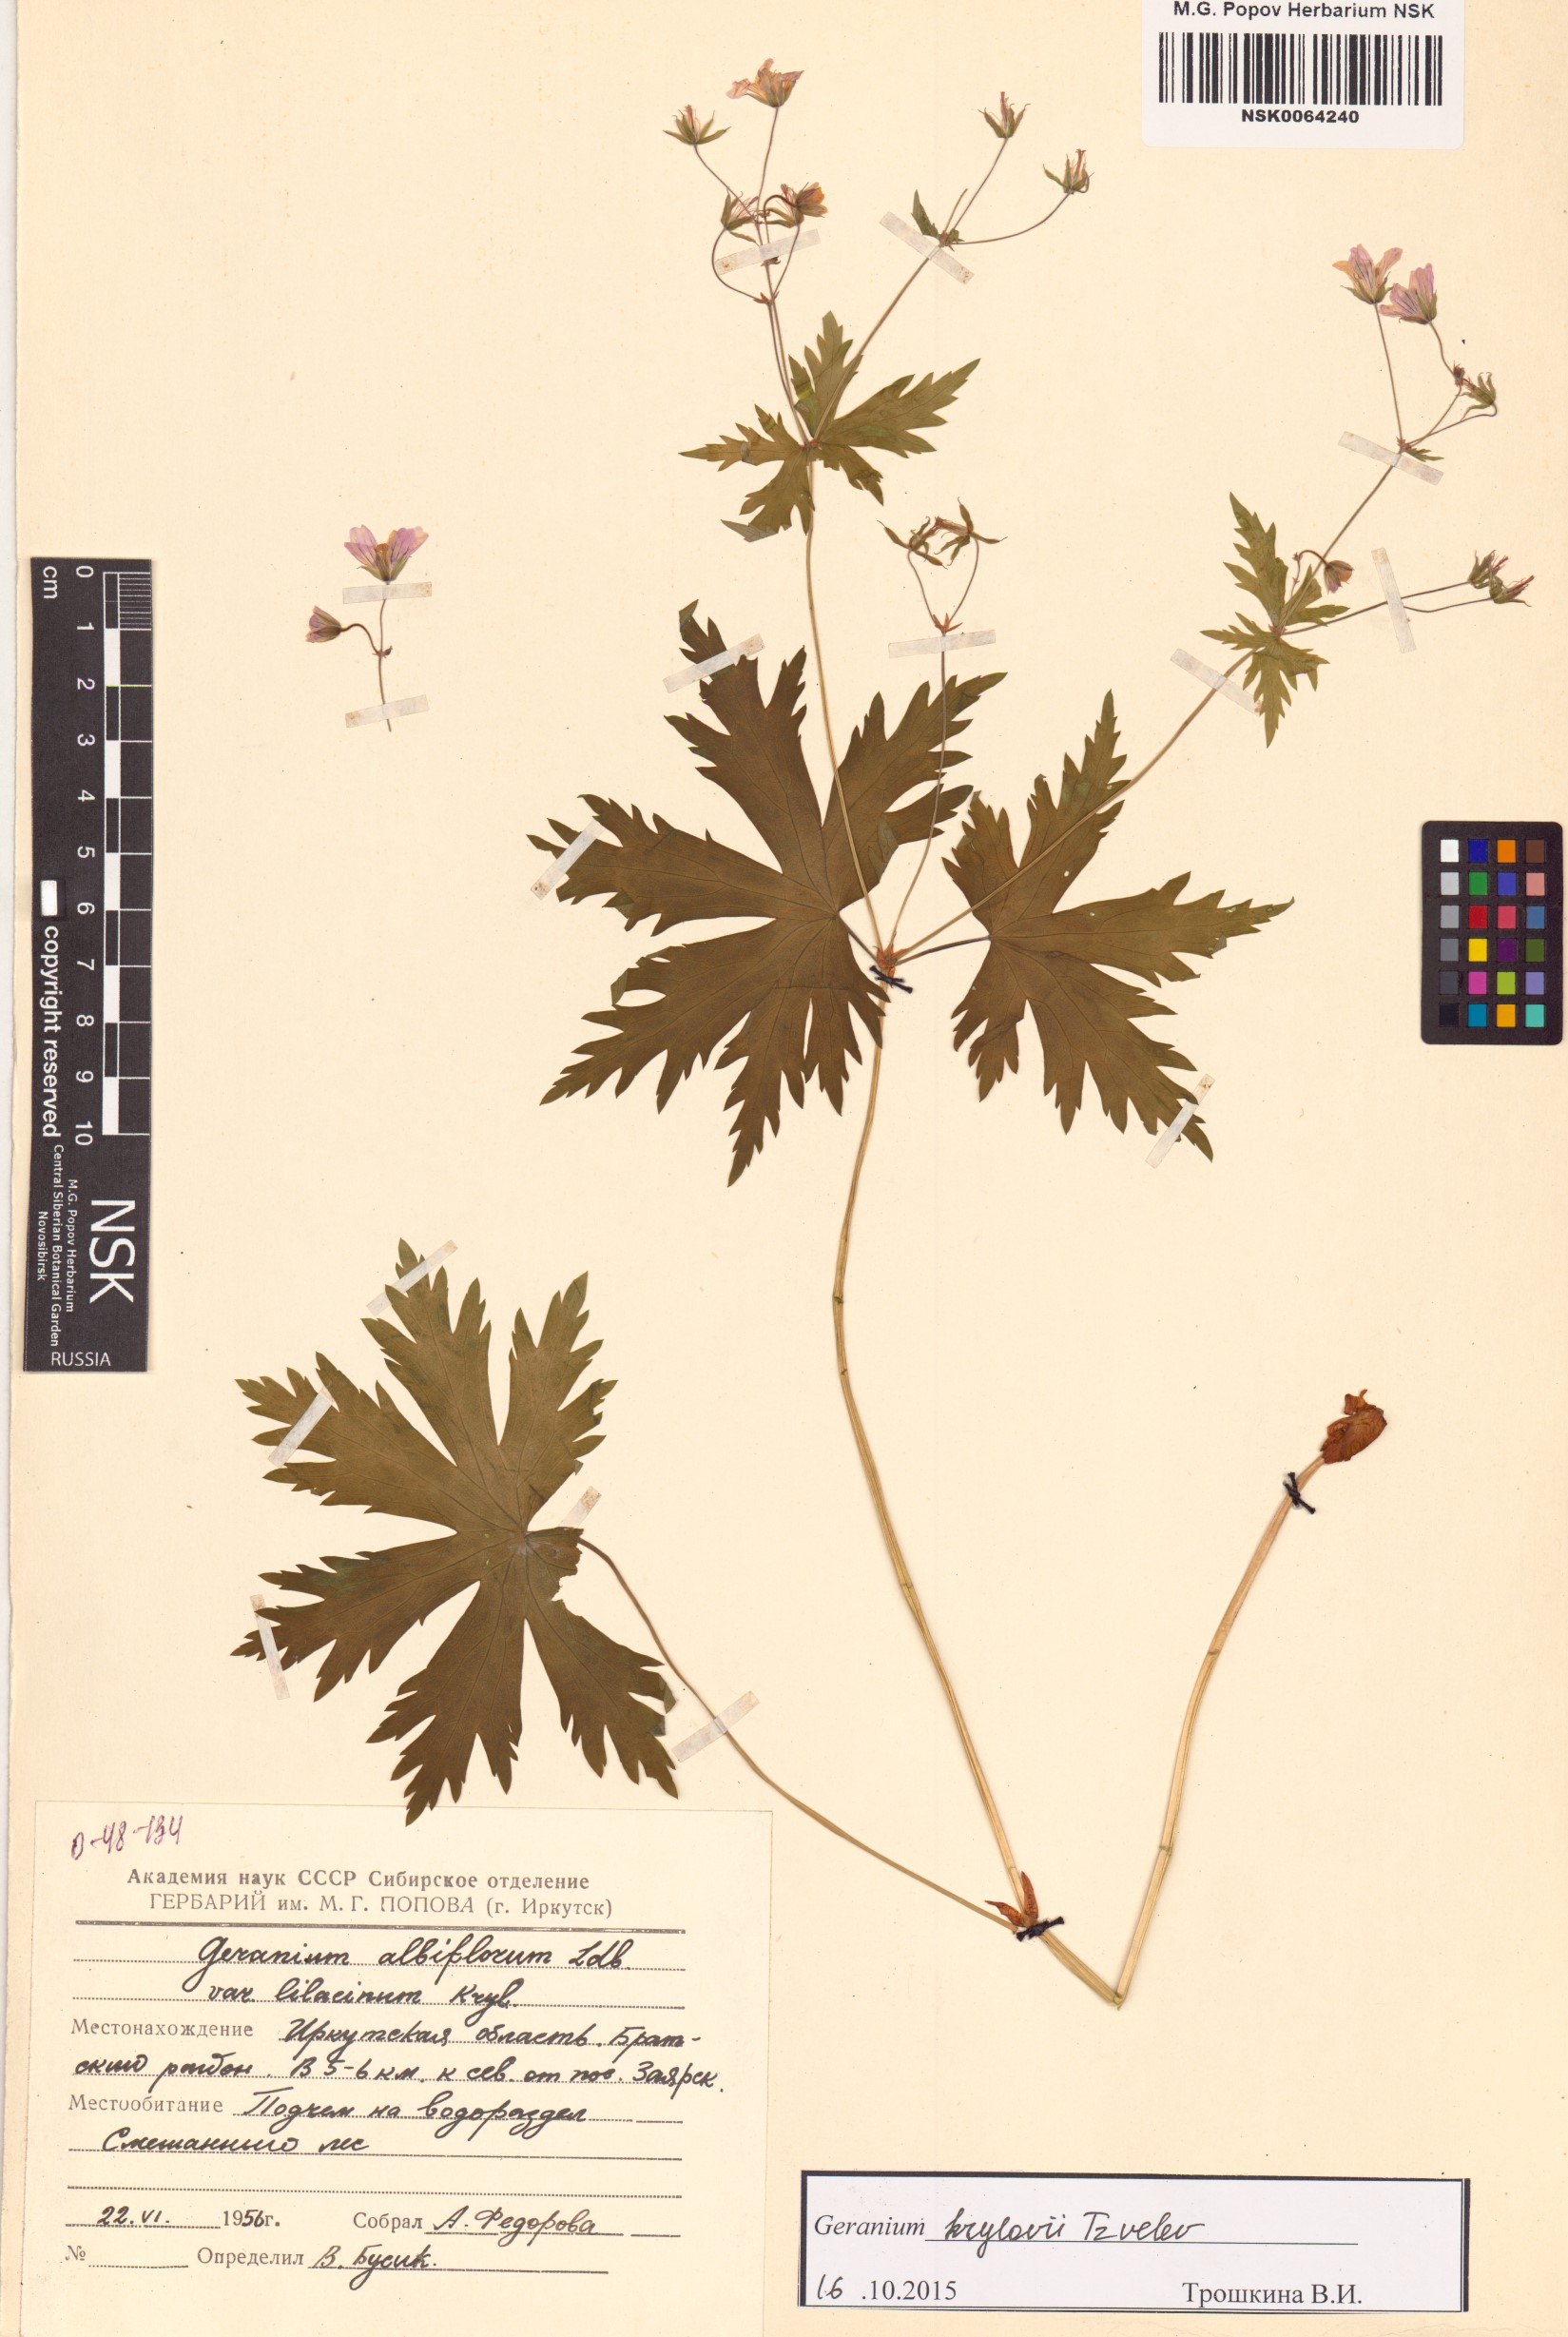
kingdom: Plantae
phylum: Tracheophyta
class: Magnoliopsida
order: Geraniales
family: Geraniaceae
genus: Geranium
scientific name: Geranium sylvaticum
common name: Wood crane's-bill
